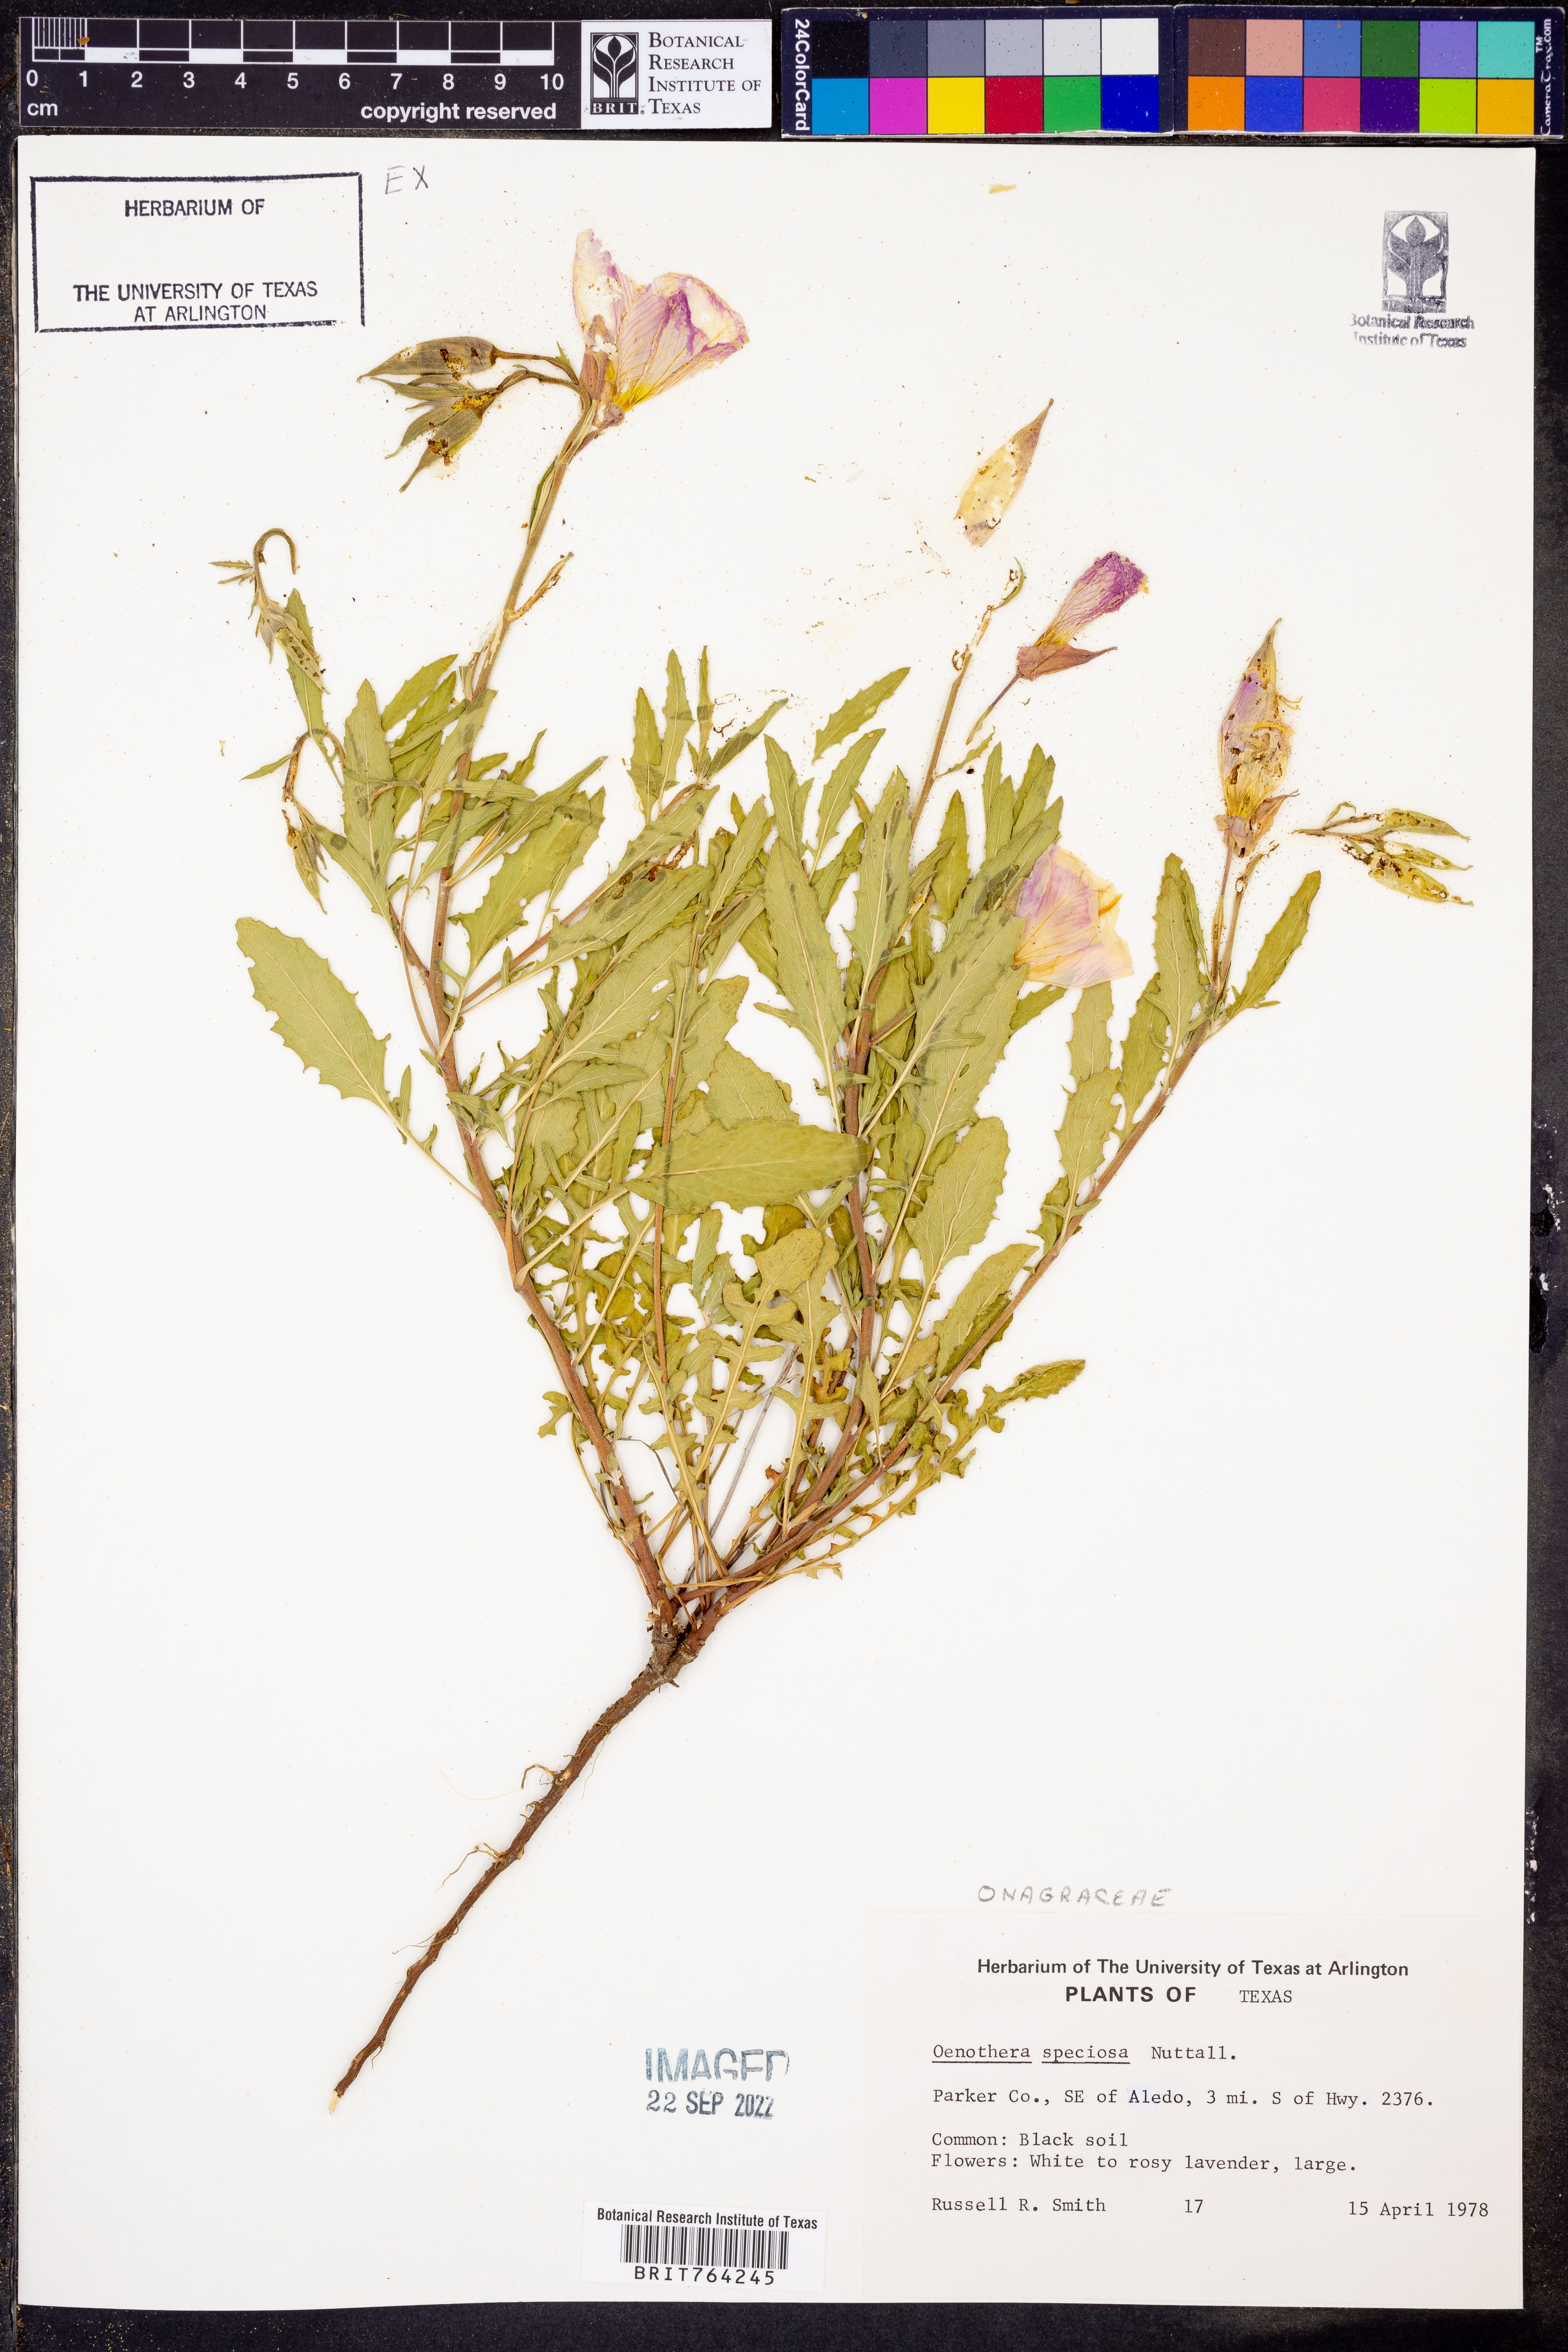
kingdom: Plantae
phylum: Tracheophyta
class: Magnoliopsida
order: Myrtales
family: Onagraceae
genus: Oenothera
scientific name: Oenothera speciosa
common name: White evening-primrose
